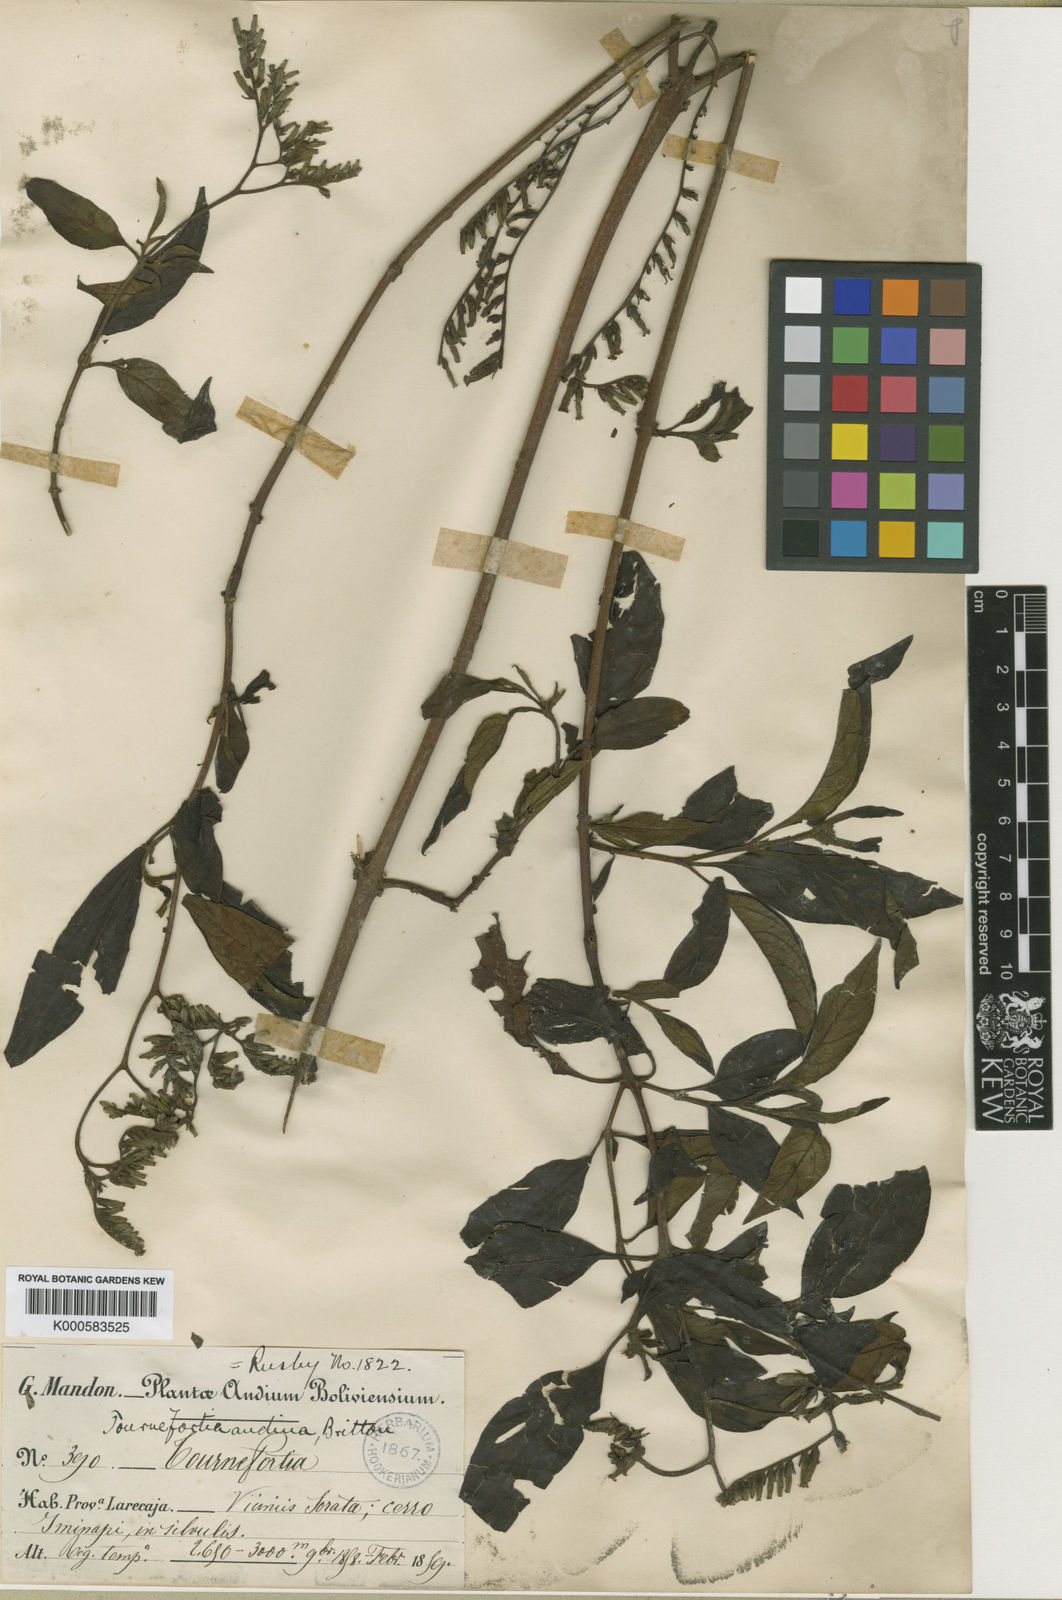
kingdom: Plantae
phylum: Tracheophyta
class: Magnoliopsida
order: Boraginales
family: Heliotropiaceae
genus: Heliotropium
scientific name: Heliotropium rusbyi
